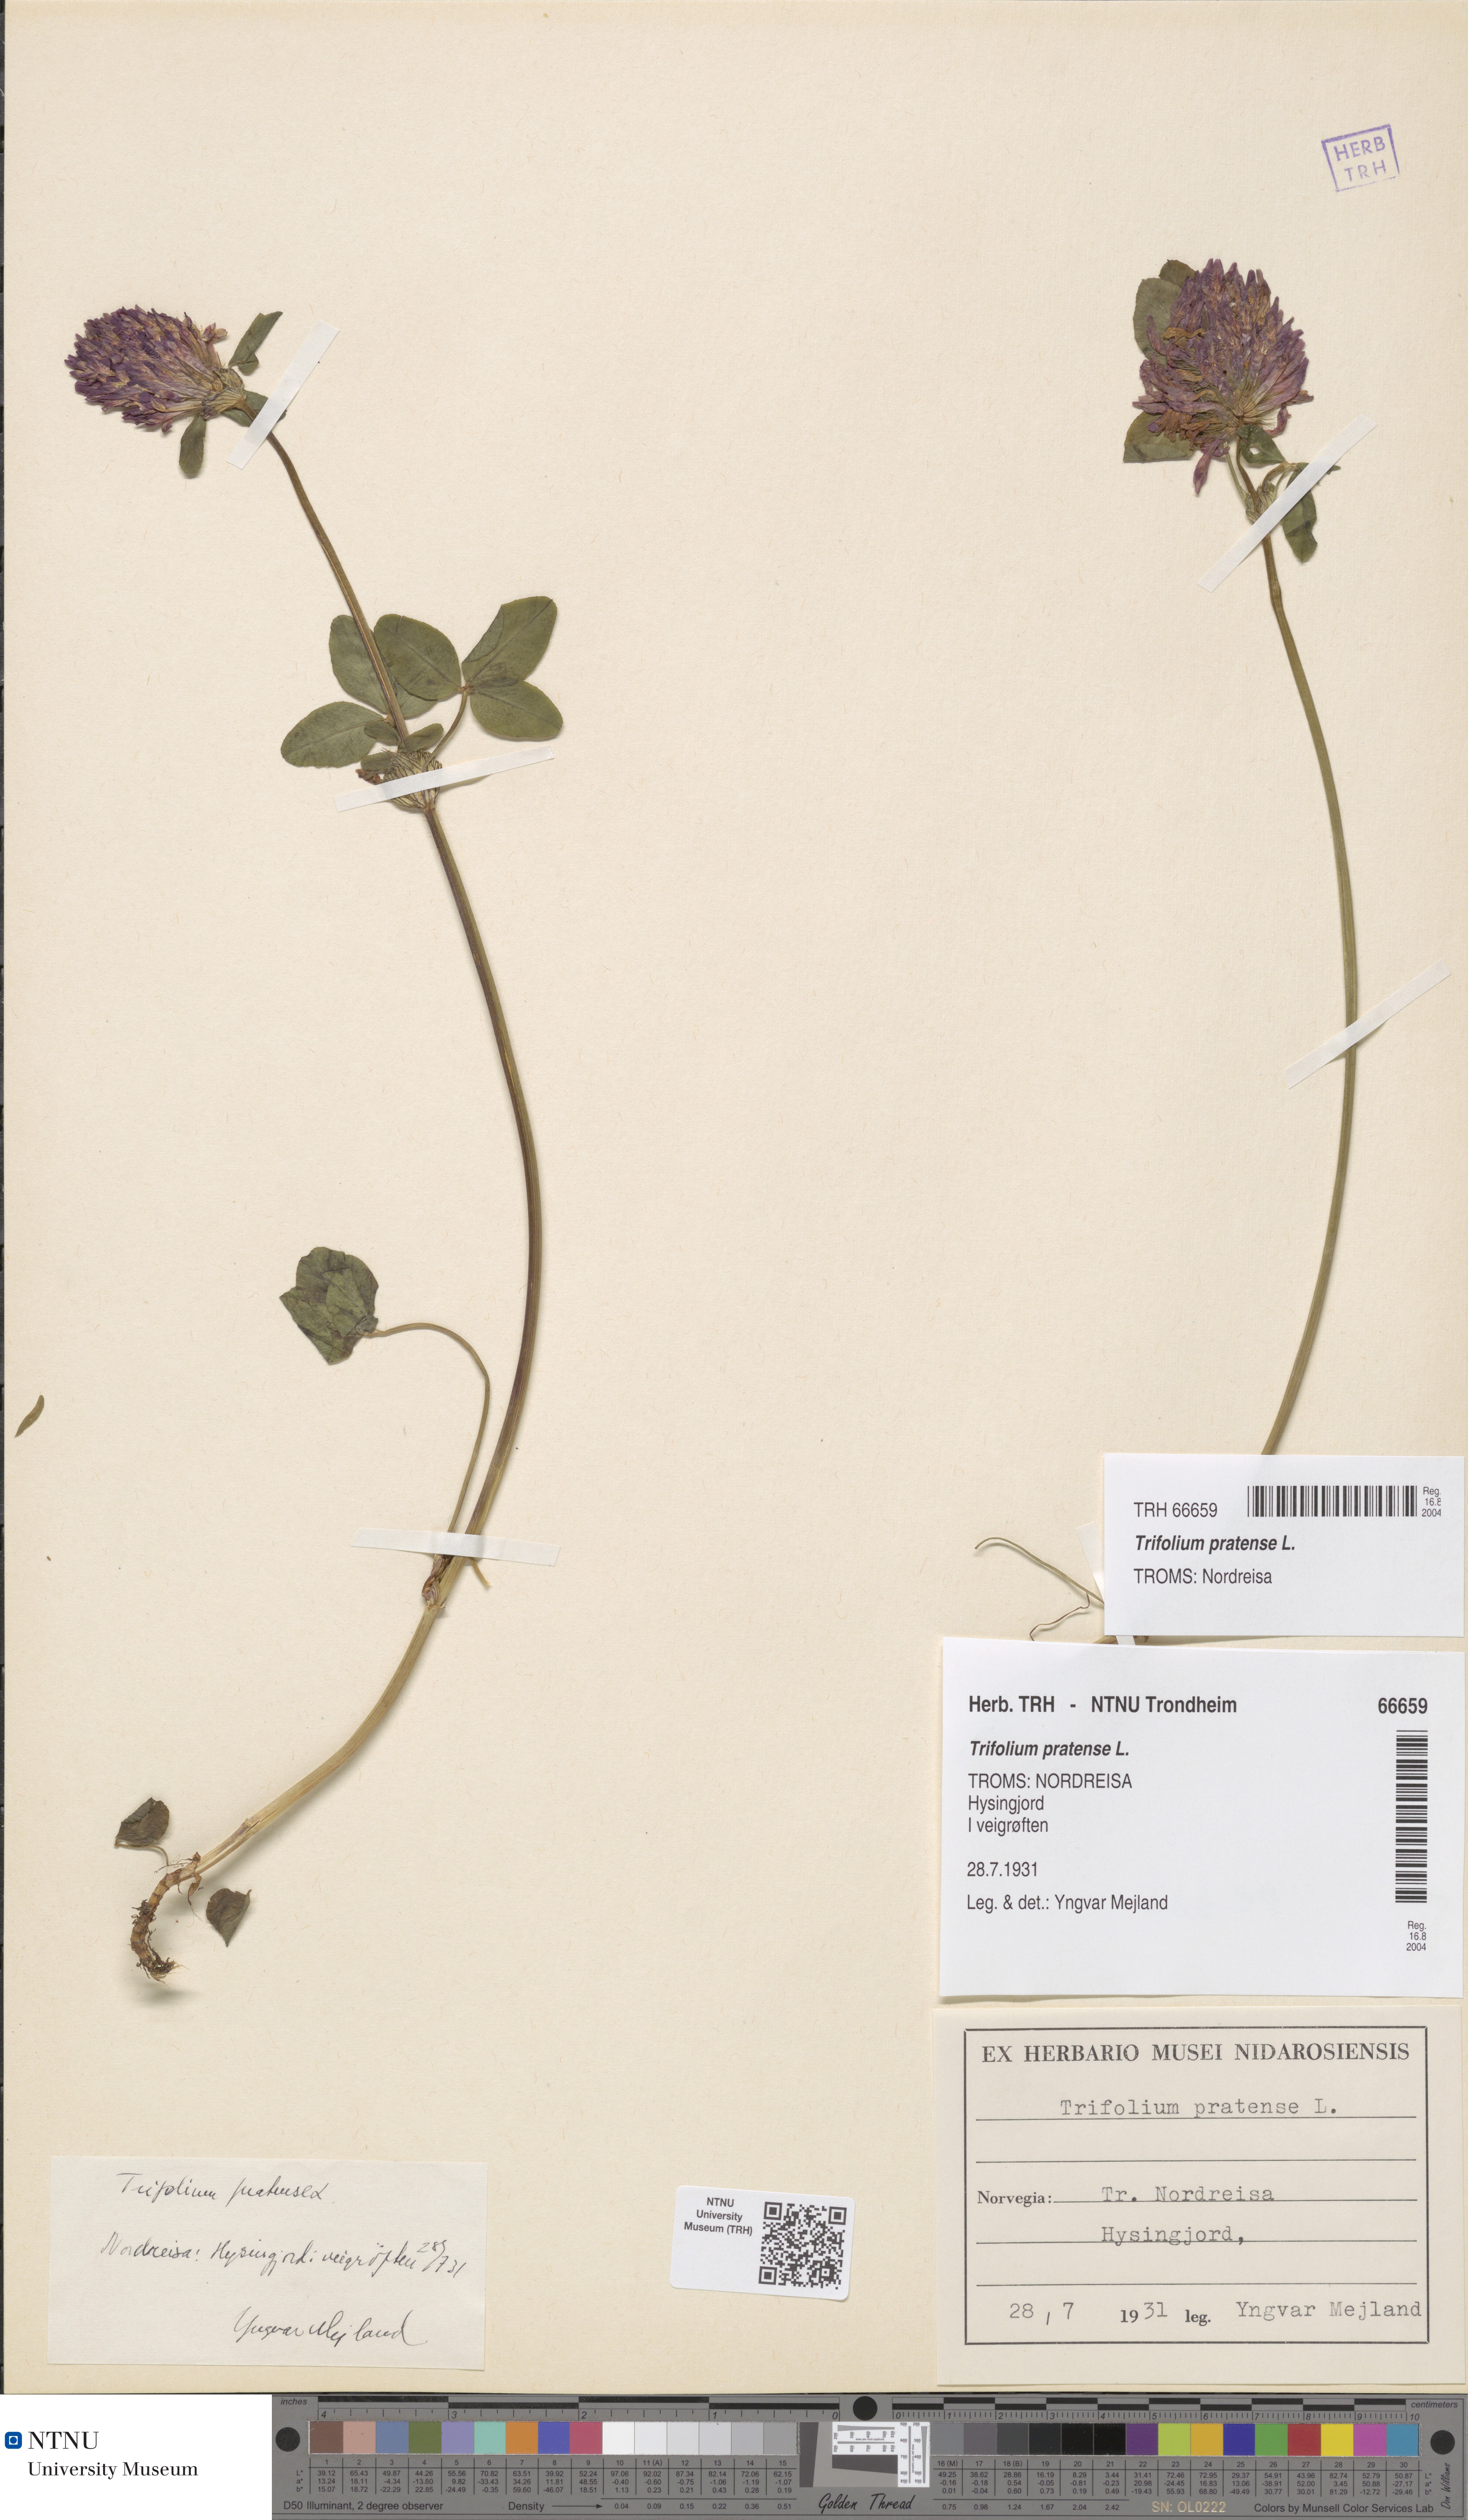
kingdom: Plantae
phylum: Tracheophyta
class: Magnoliopsida
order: Fabales
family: Fabaceae
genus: Trifolium
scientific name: Trifolium pratense
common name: Red clover
